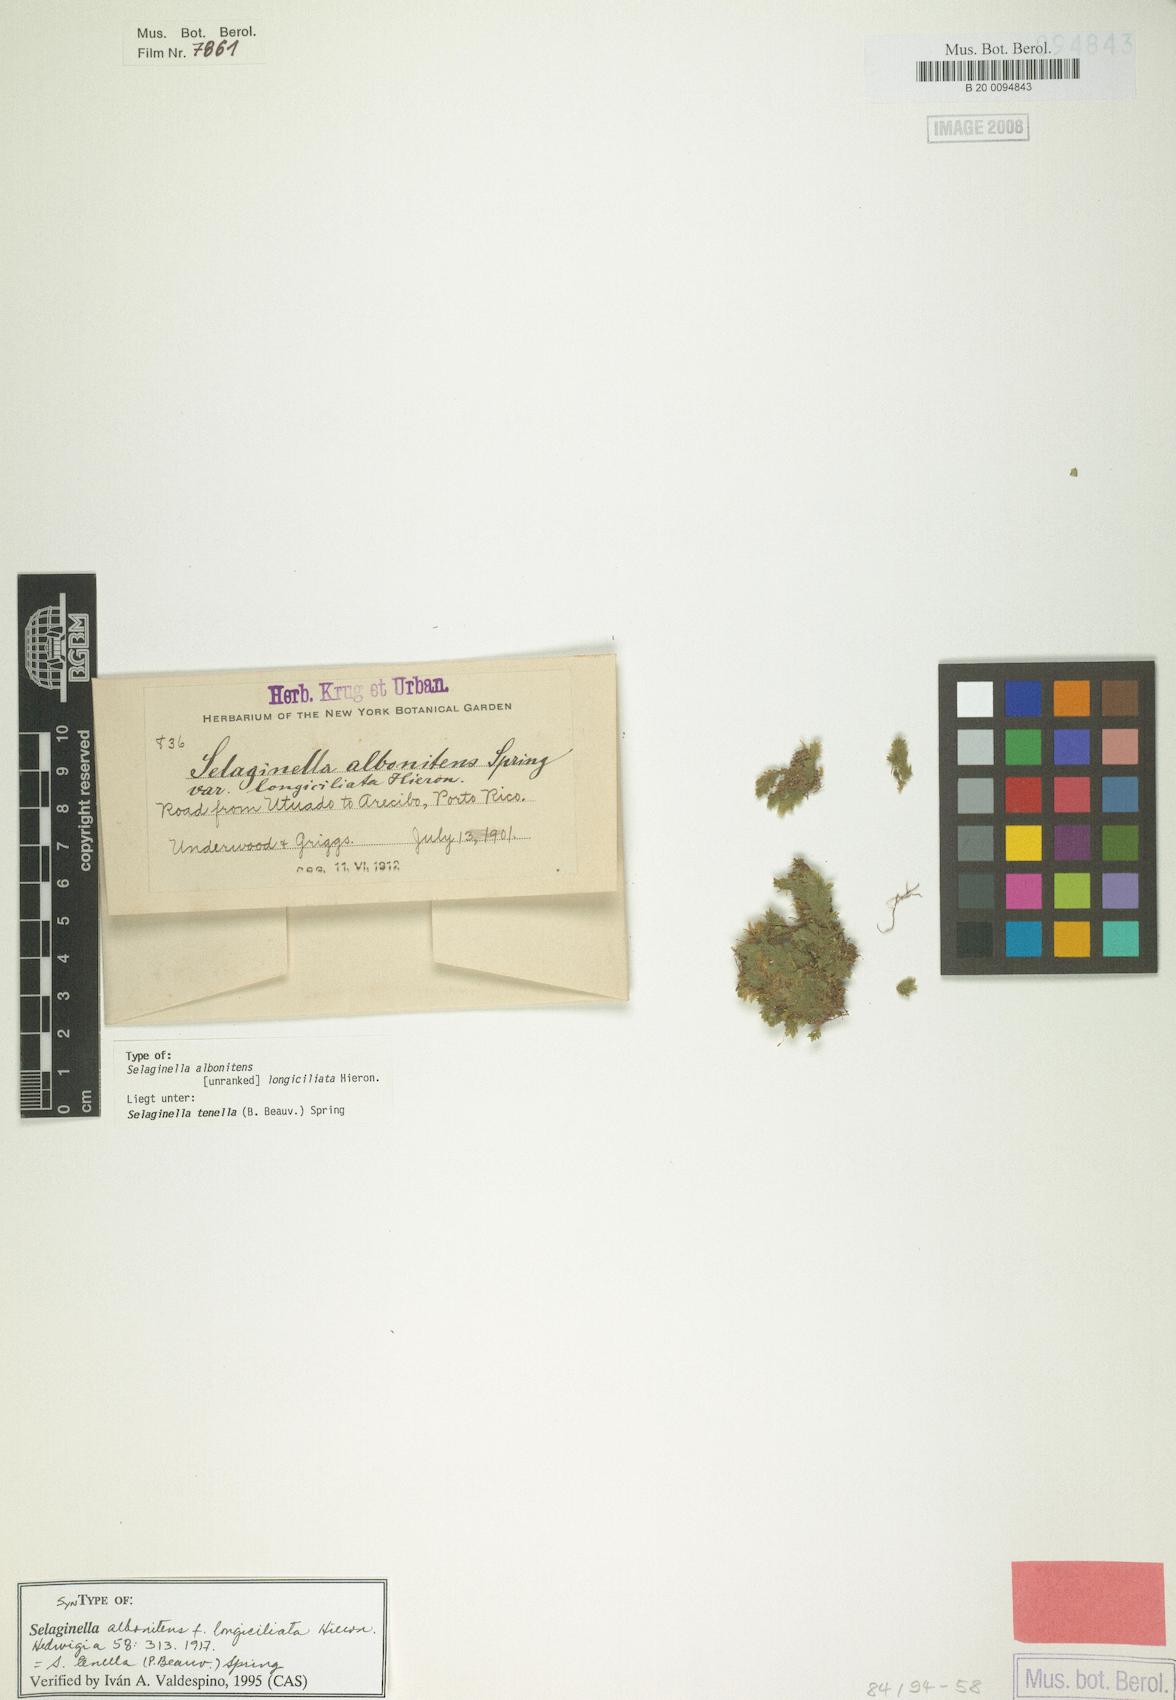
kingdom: Plantae
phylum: Tracheophyta
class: Lycopodiopsida
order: Selaginellales
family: Selaginellaceae
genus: Selaginella
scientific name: Selaginella tenella
